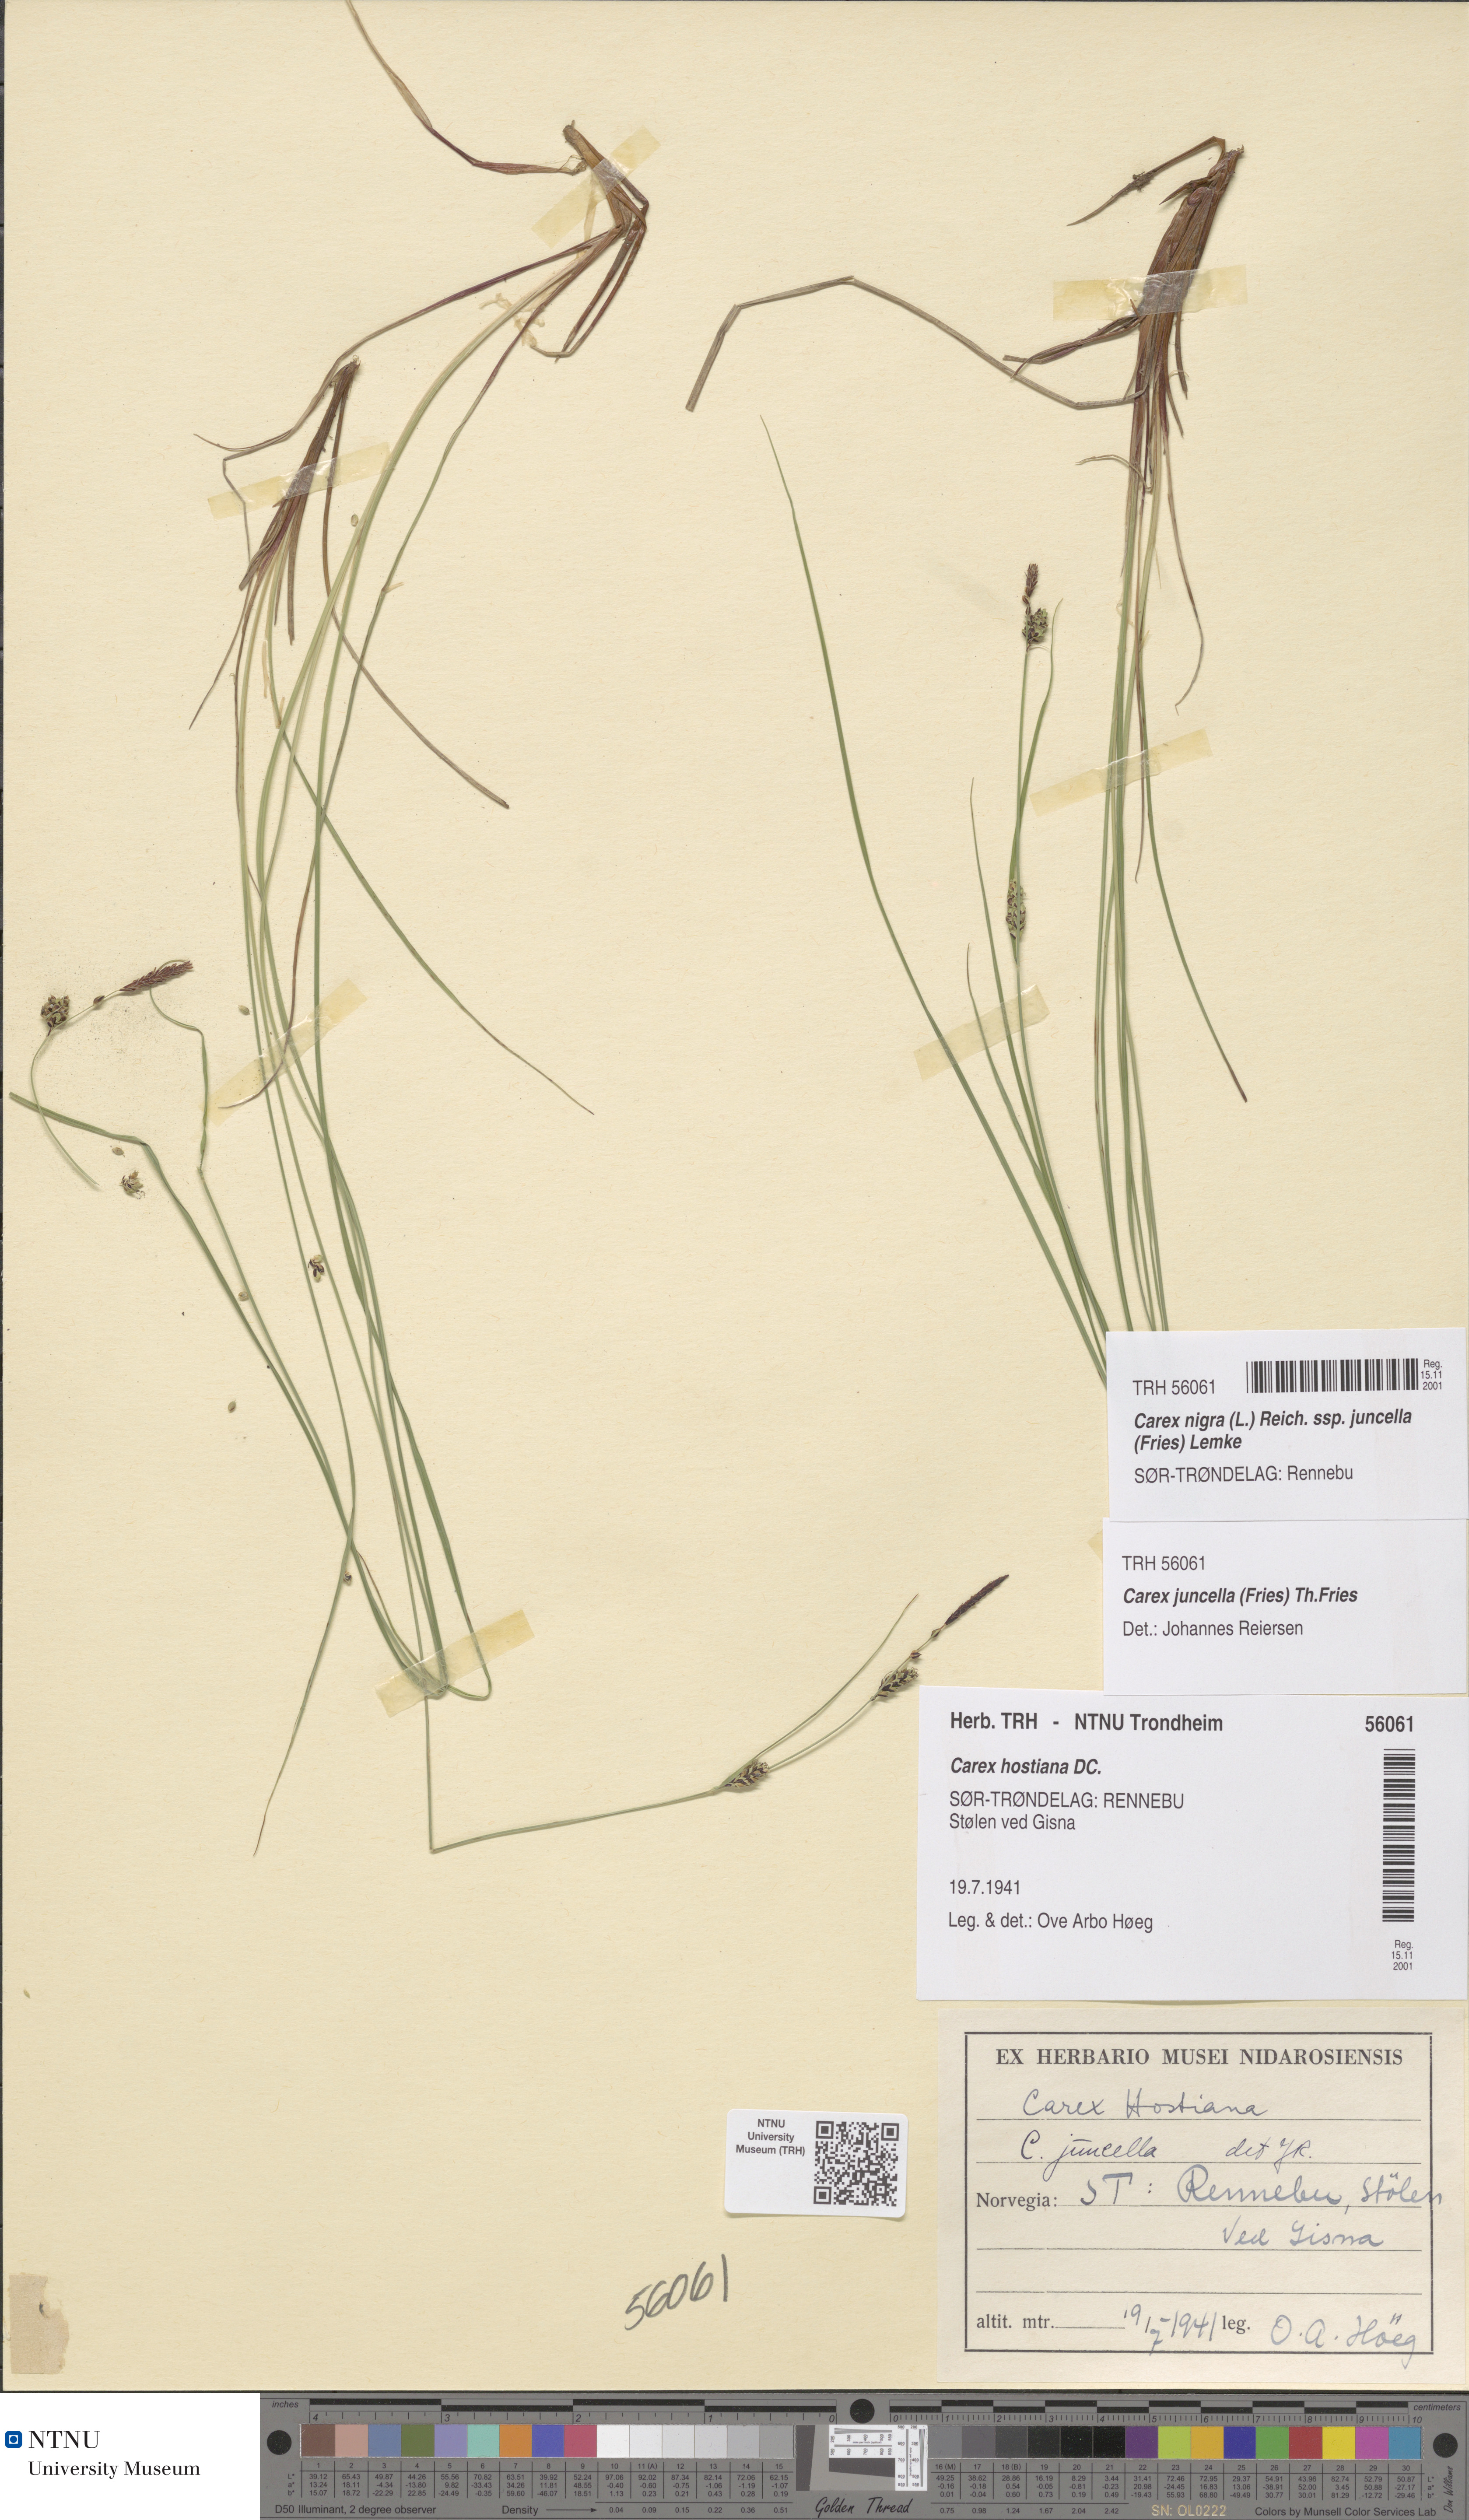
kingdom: Plantae
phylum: Tracheophyta
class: Liliopsida
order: Poales
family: Cyperaceae
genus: Carex
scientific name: Carex nigra
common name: Common sedge
